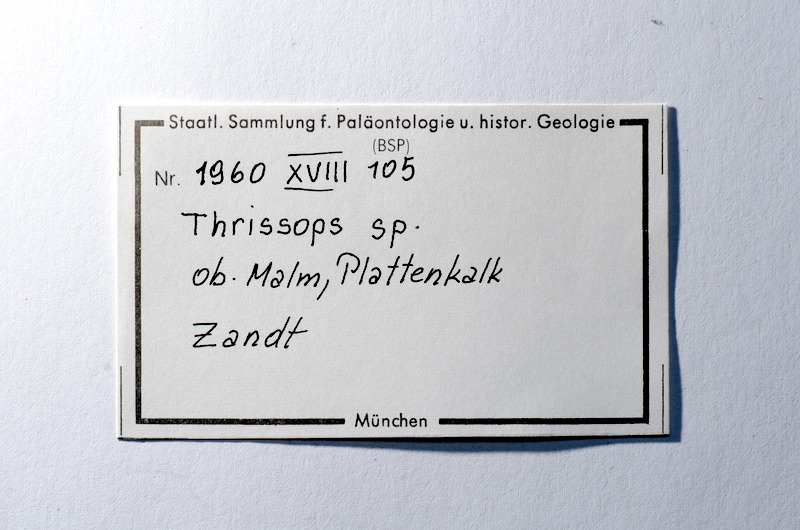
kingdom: Animalia
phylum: Chordata
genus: Thrissops
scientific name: Thrissops
